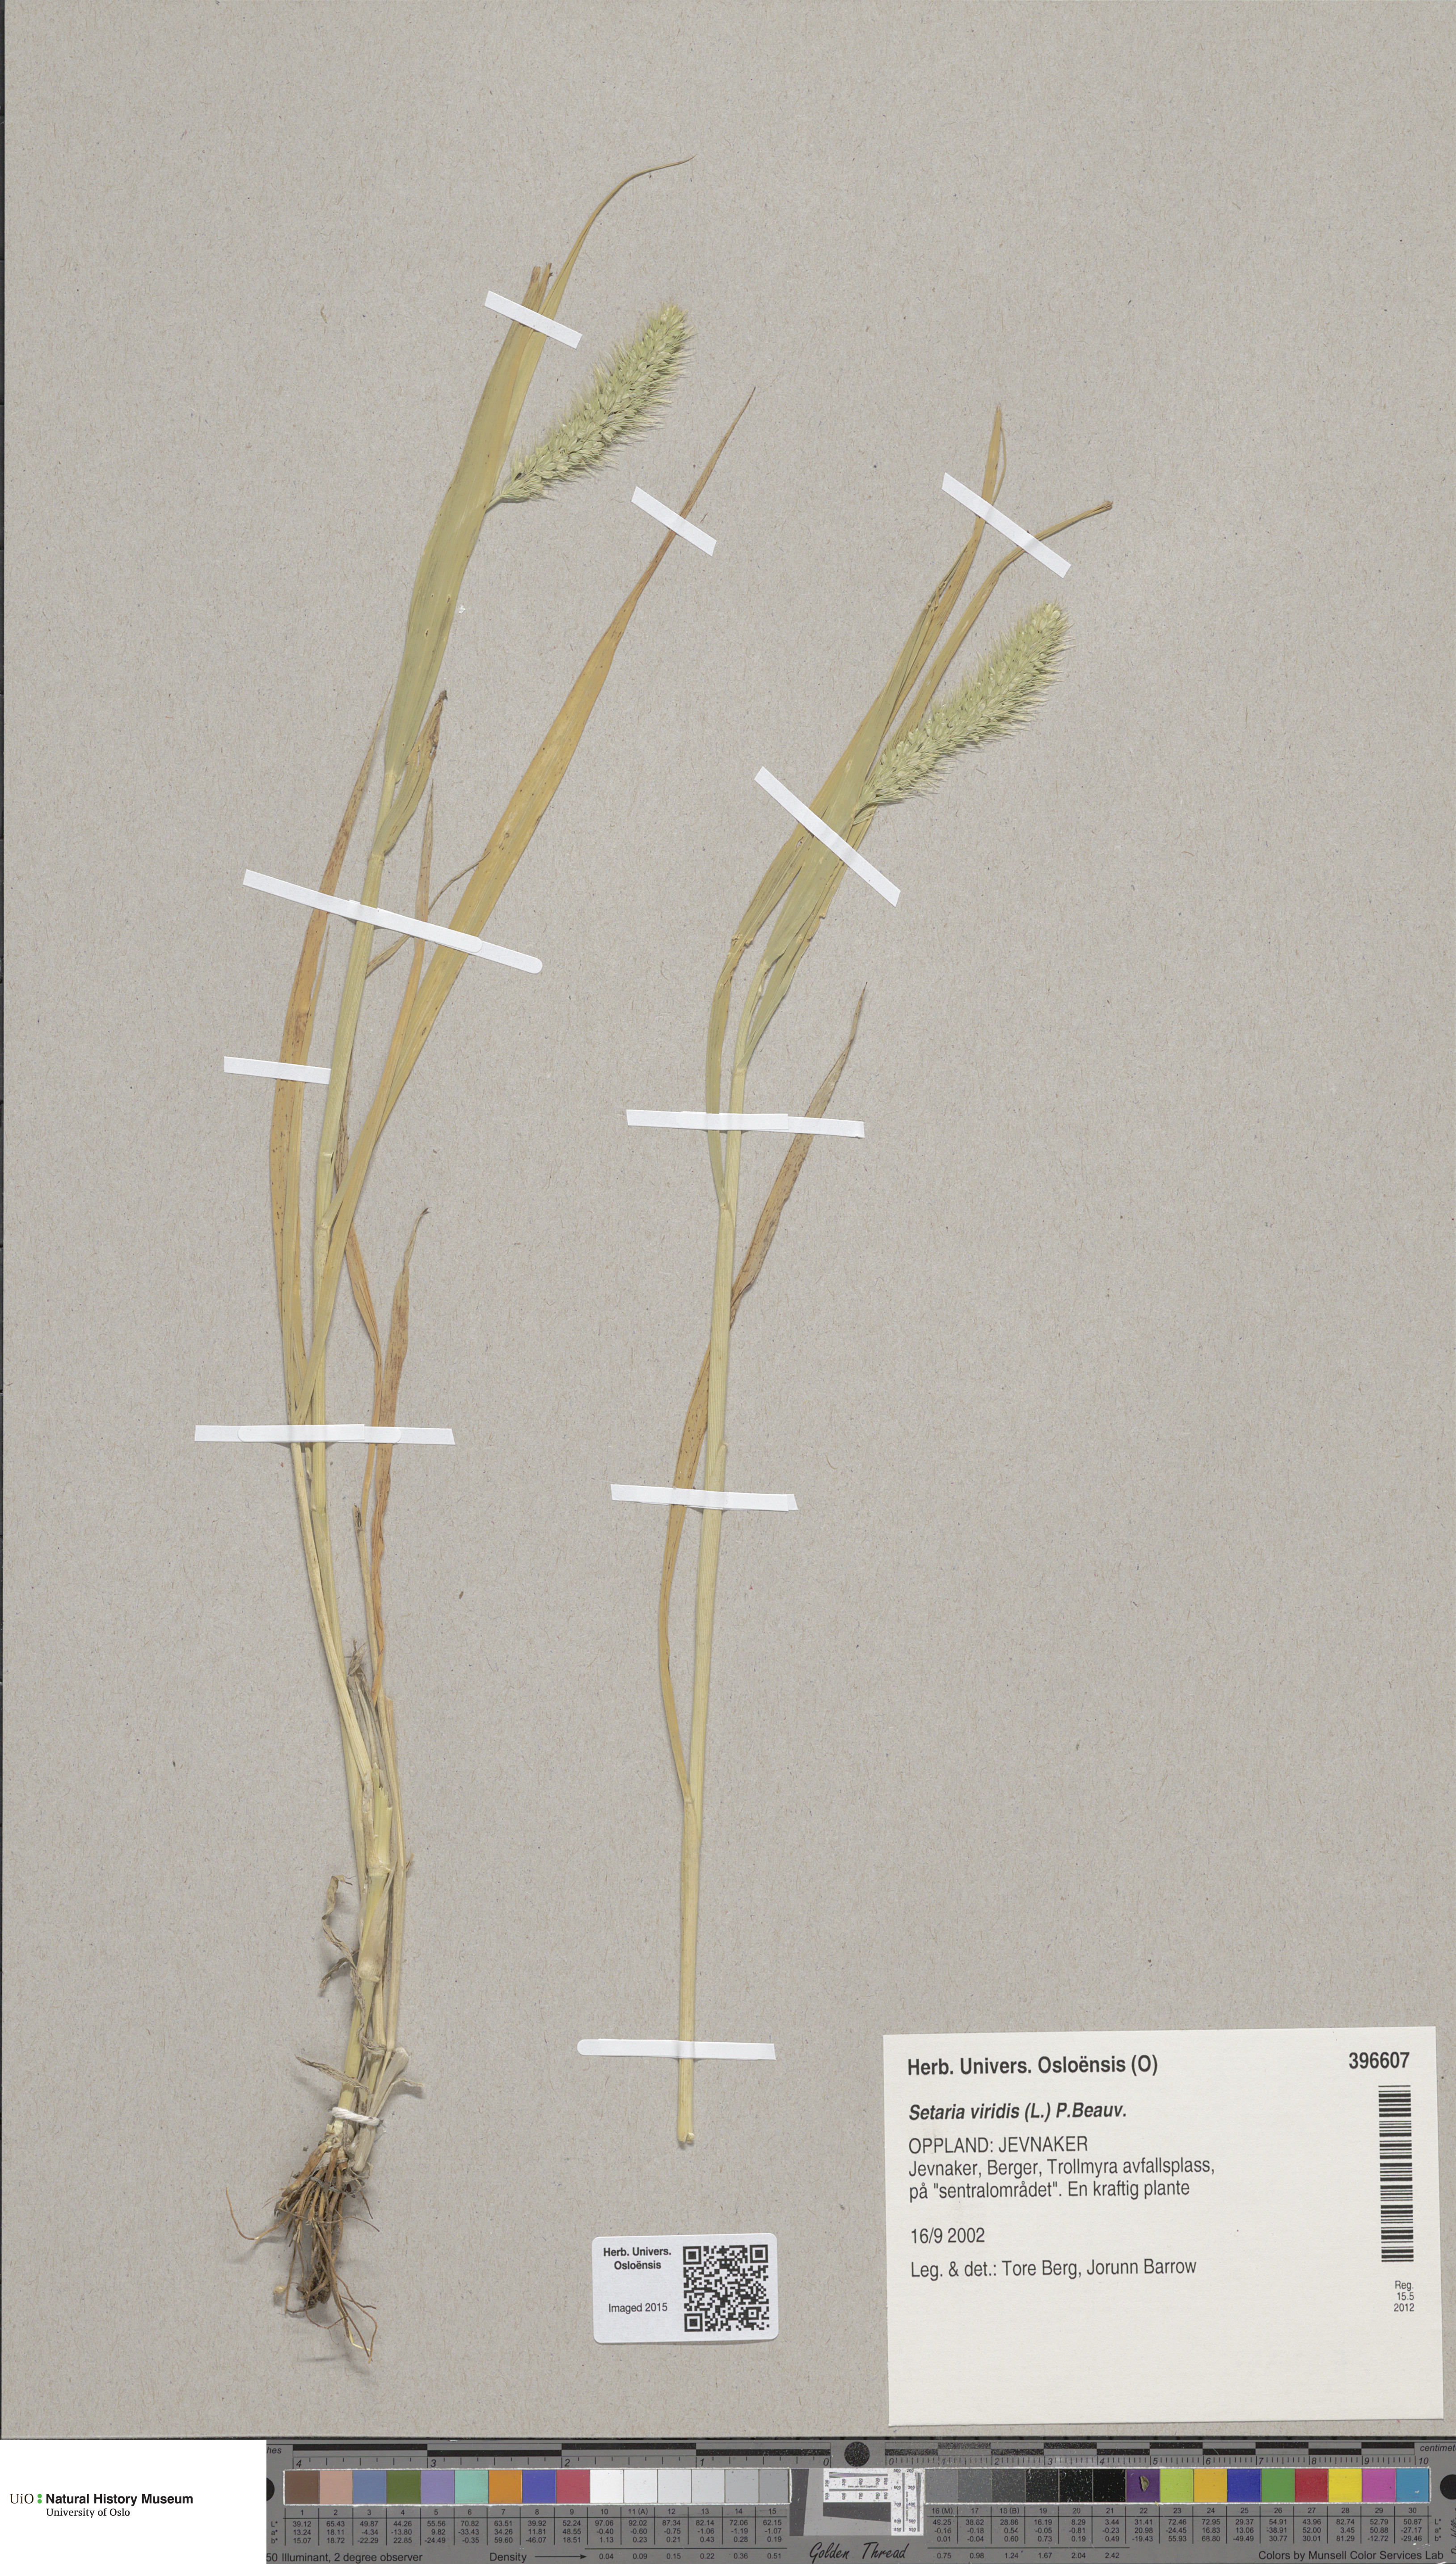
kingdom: Plantae
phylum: Tracheophyta
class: Liliopsida
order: Poales
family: Poaceae
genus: Setaria
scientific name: Setaria viridis
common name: Green bristlegrass
